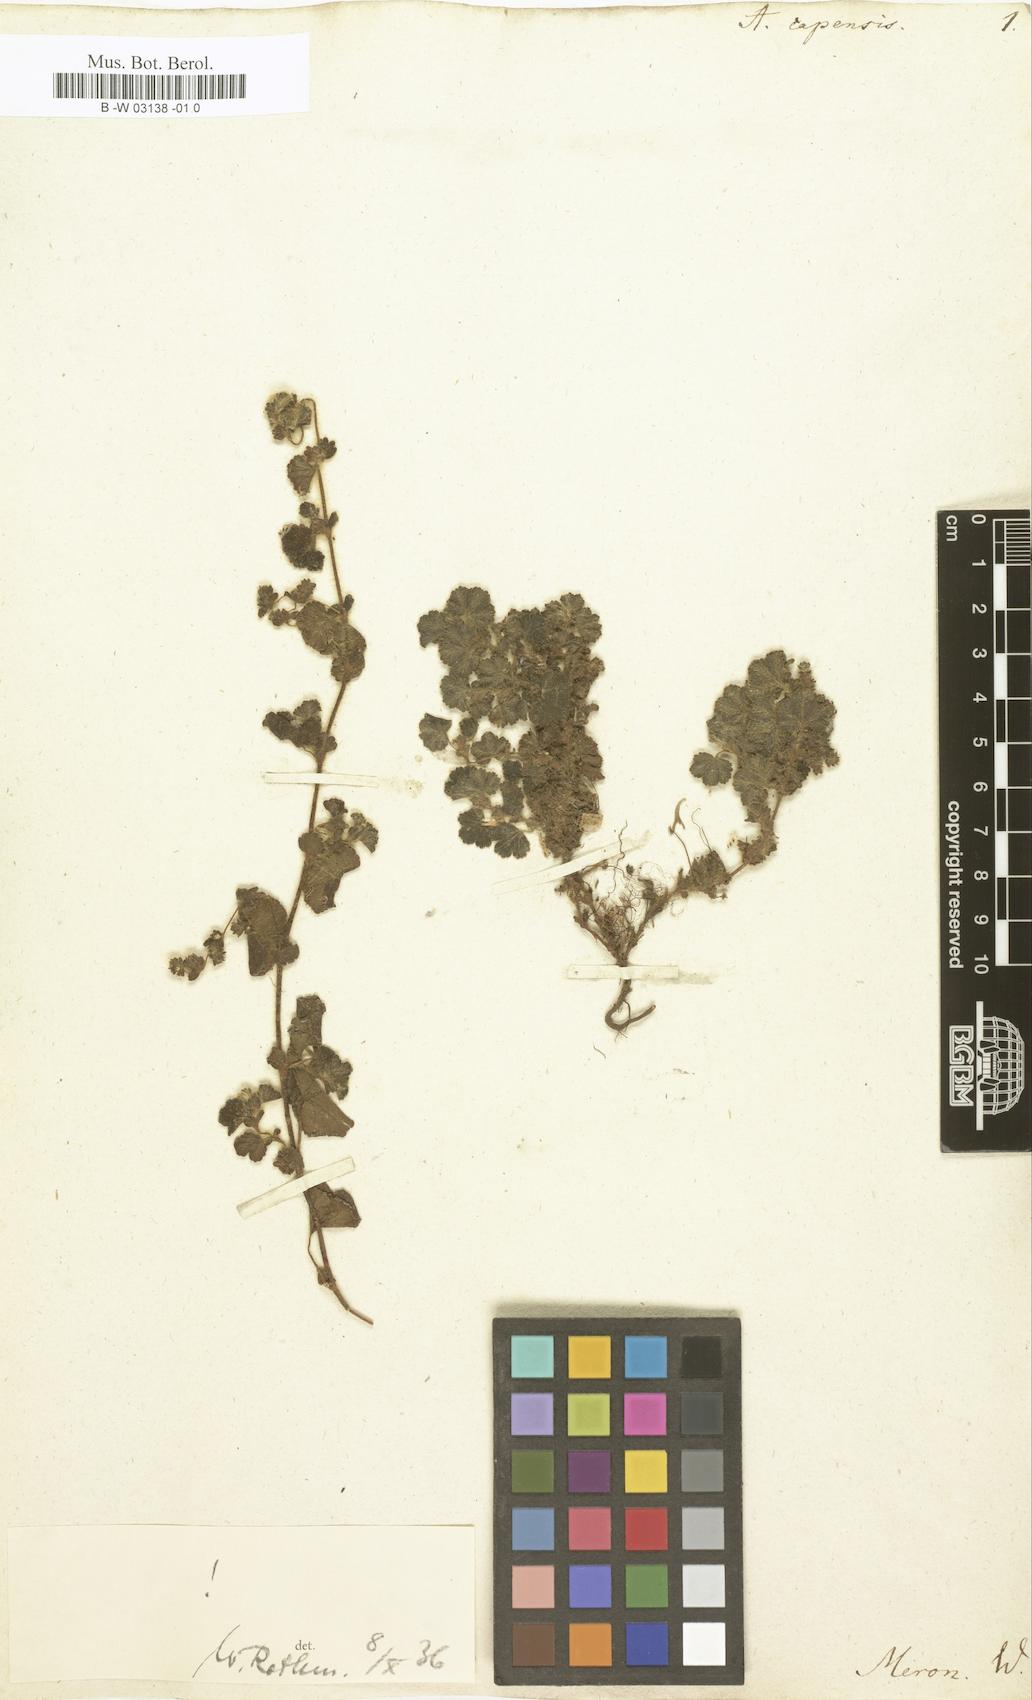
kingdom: Plantae
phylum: Tracheophyta
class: Magnoliopsida
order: Rosales
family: Rosaceae
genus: Alchemilla
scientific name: Alchemilla capensis
